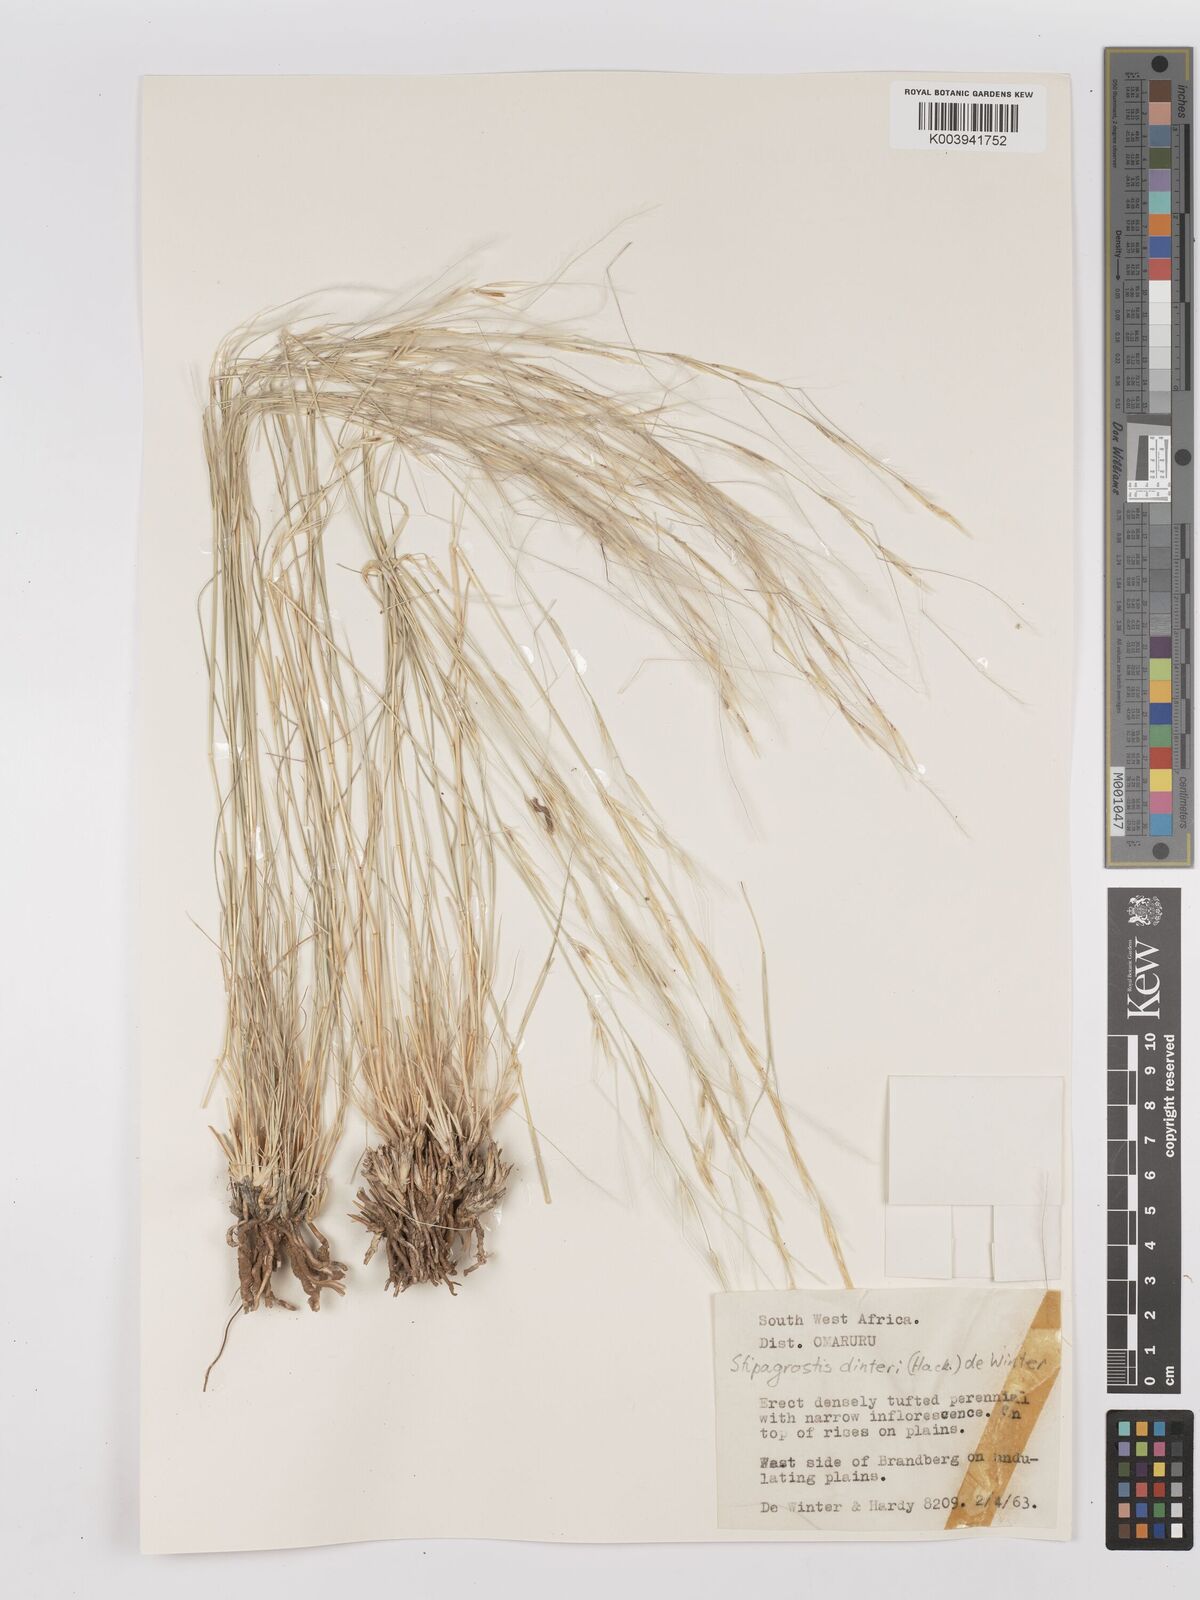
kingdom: Plantae
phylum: Tracheophyta
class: Liliopsida
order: Poales
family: Poaceae
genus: Stipagrostis
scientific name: Stipagrostis dinteri
